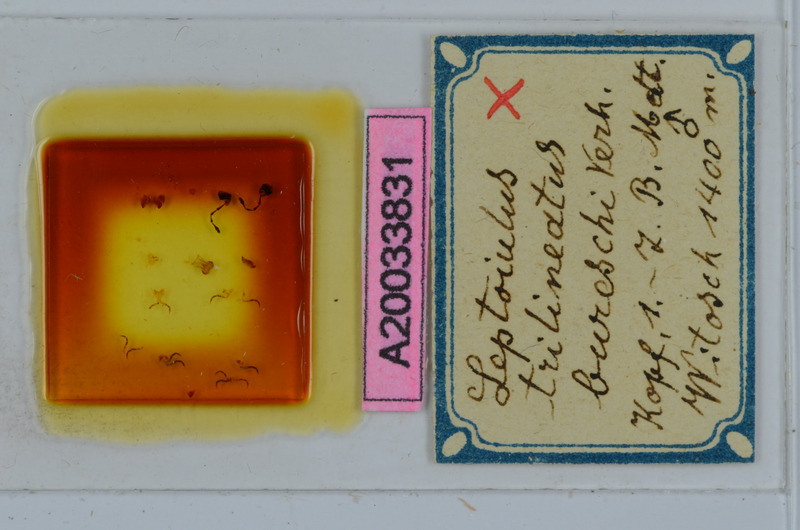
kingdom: Animalia
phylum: Arthropoda
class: Diplopoda
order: Julida
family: Julidae
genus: Typhloiulus
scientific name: Typhloiulus bureschi
